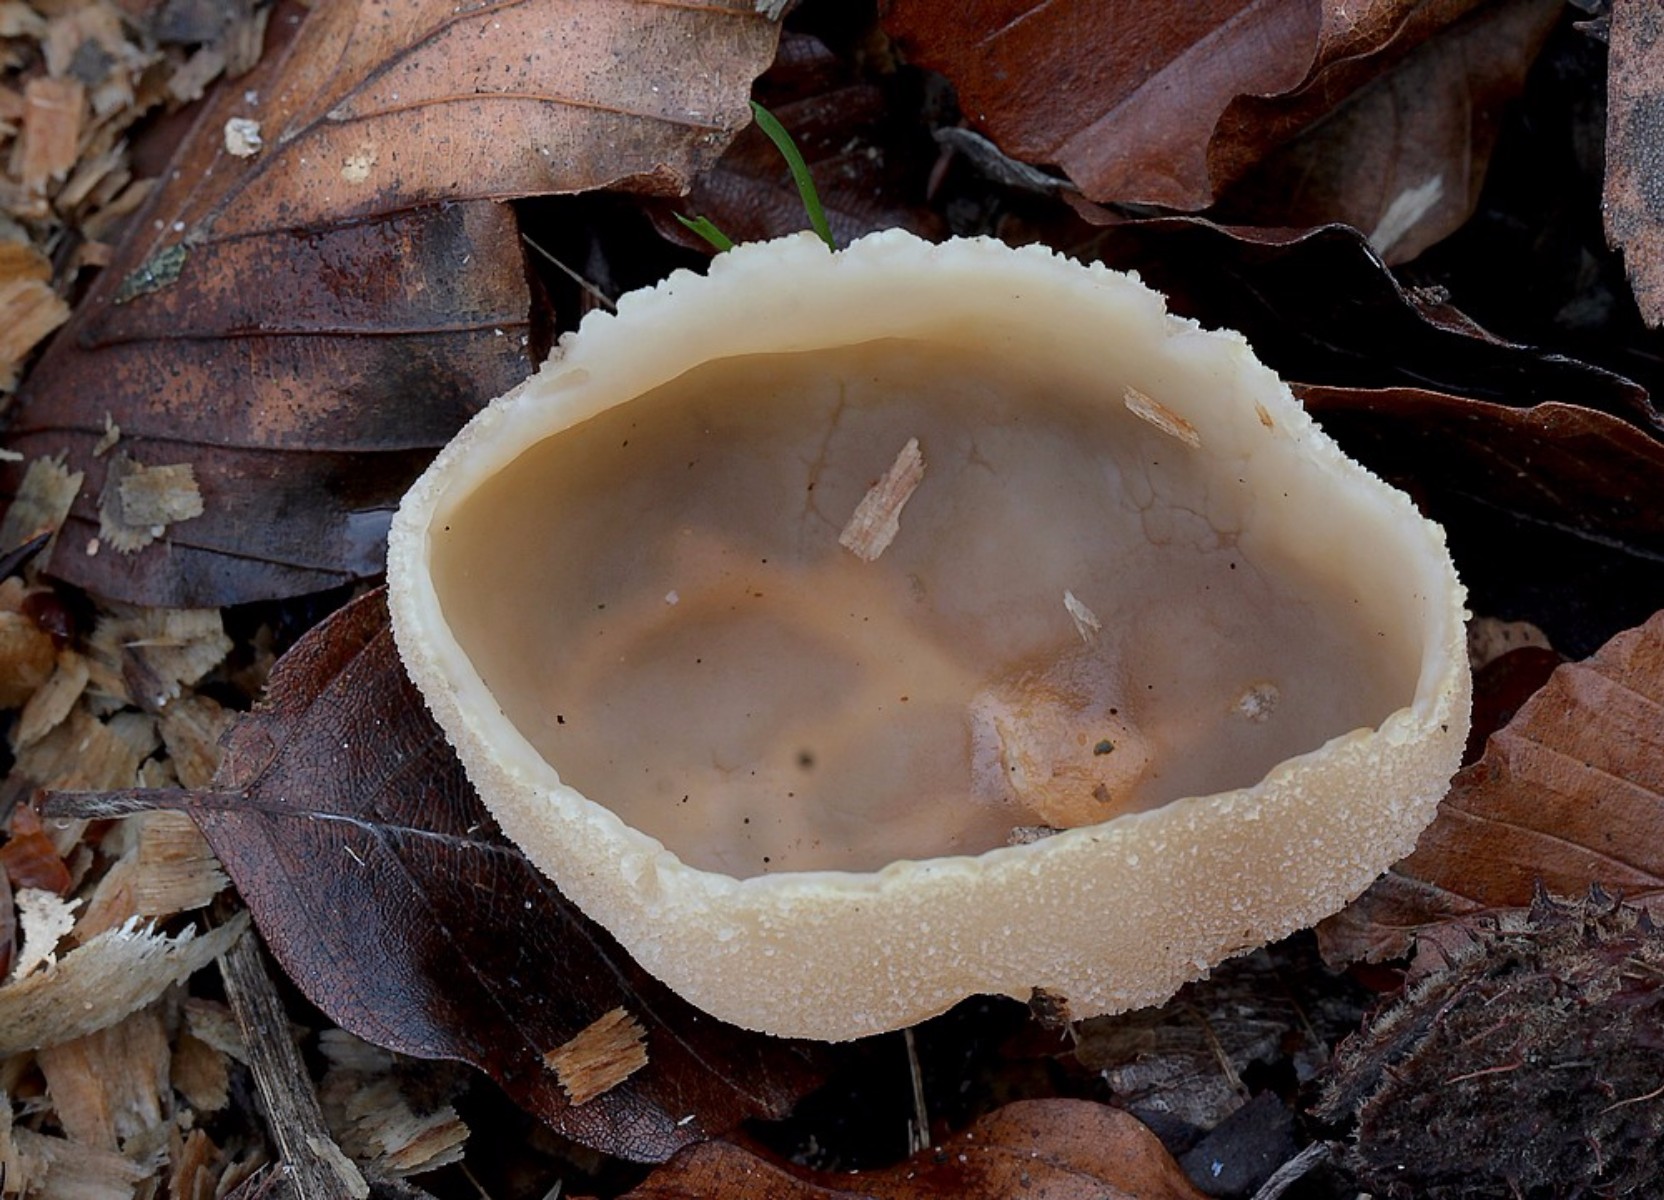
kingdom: Fungi
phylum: Ascomycota
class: Pezizomycetes
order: Pezizales
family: Pezizaceae
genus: Peziza
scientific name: Peziza varia
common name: Ved-bægersvamp
